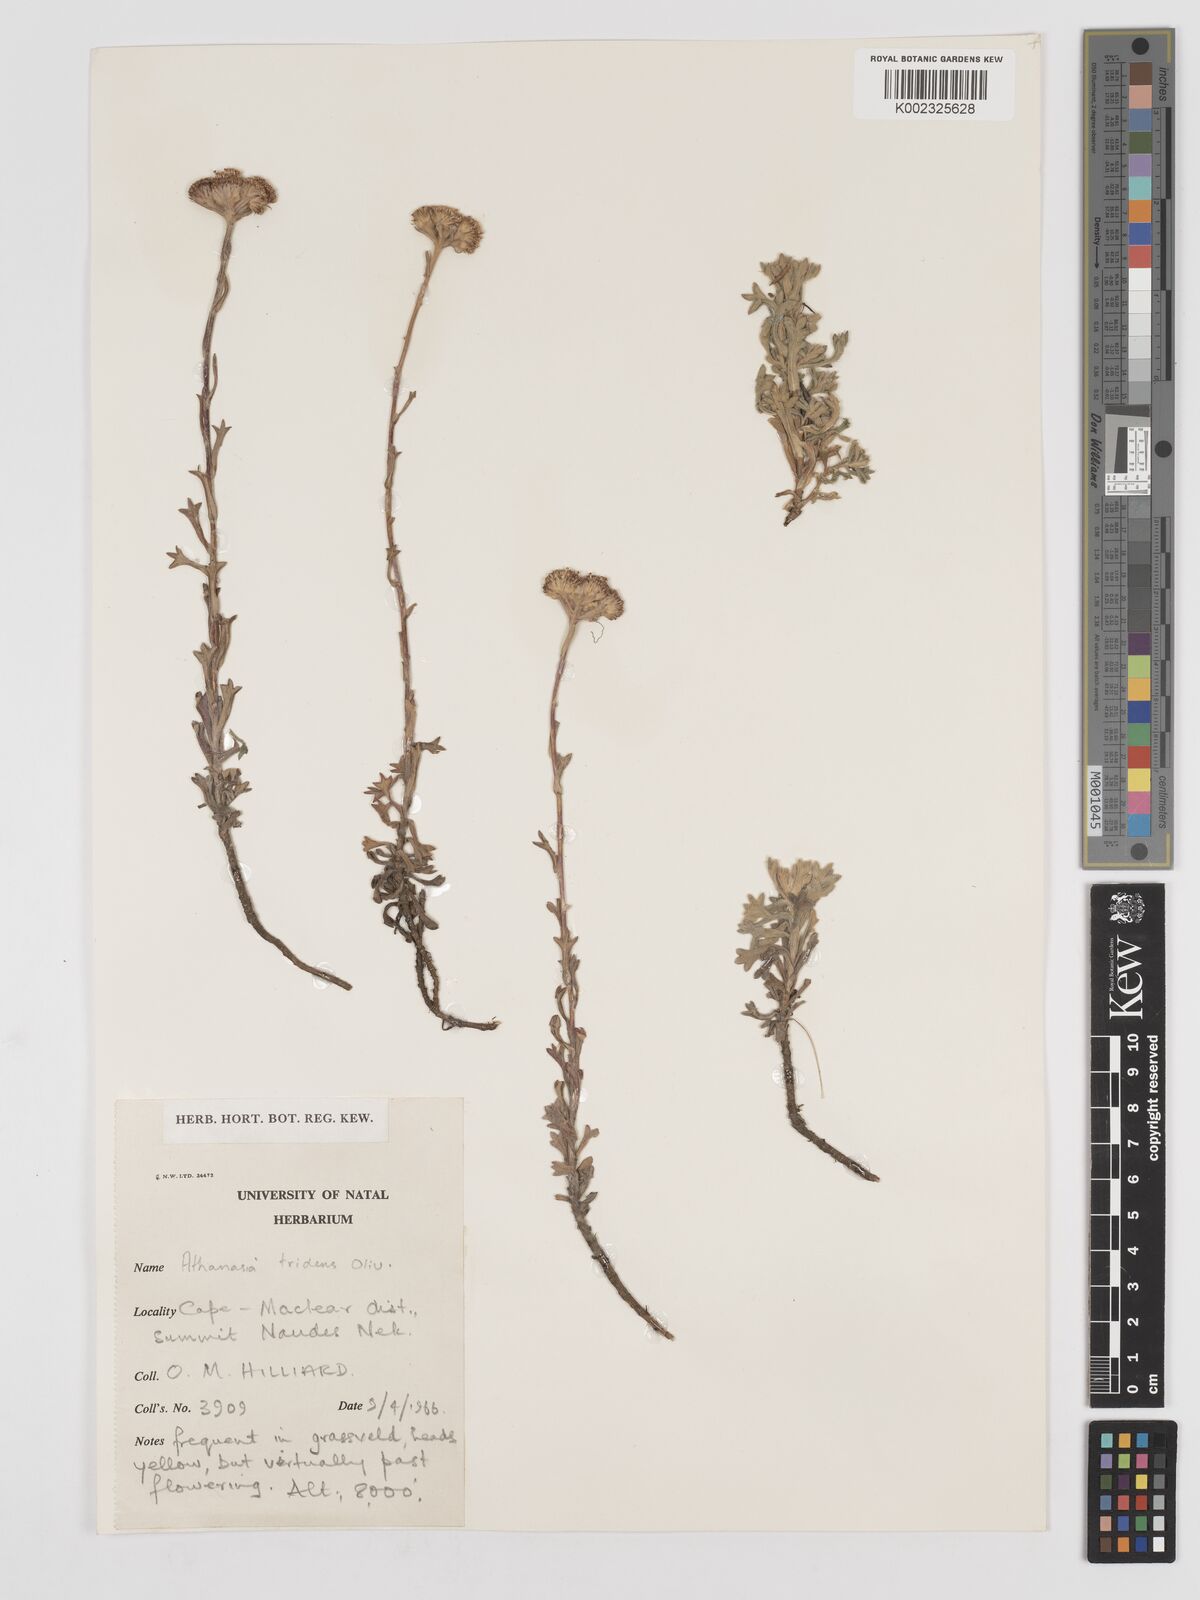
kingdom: Plantae
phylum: Tracheophyta
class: Magnoliopsida
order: Asterales
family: Asteraceae
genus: Inulanthera
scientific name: Inulanthera tridens
